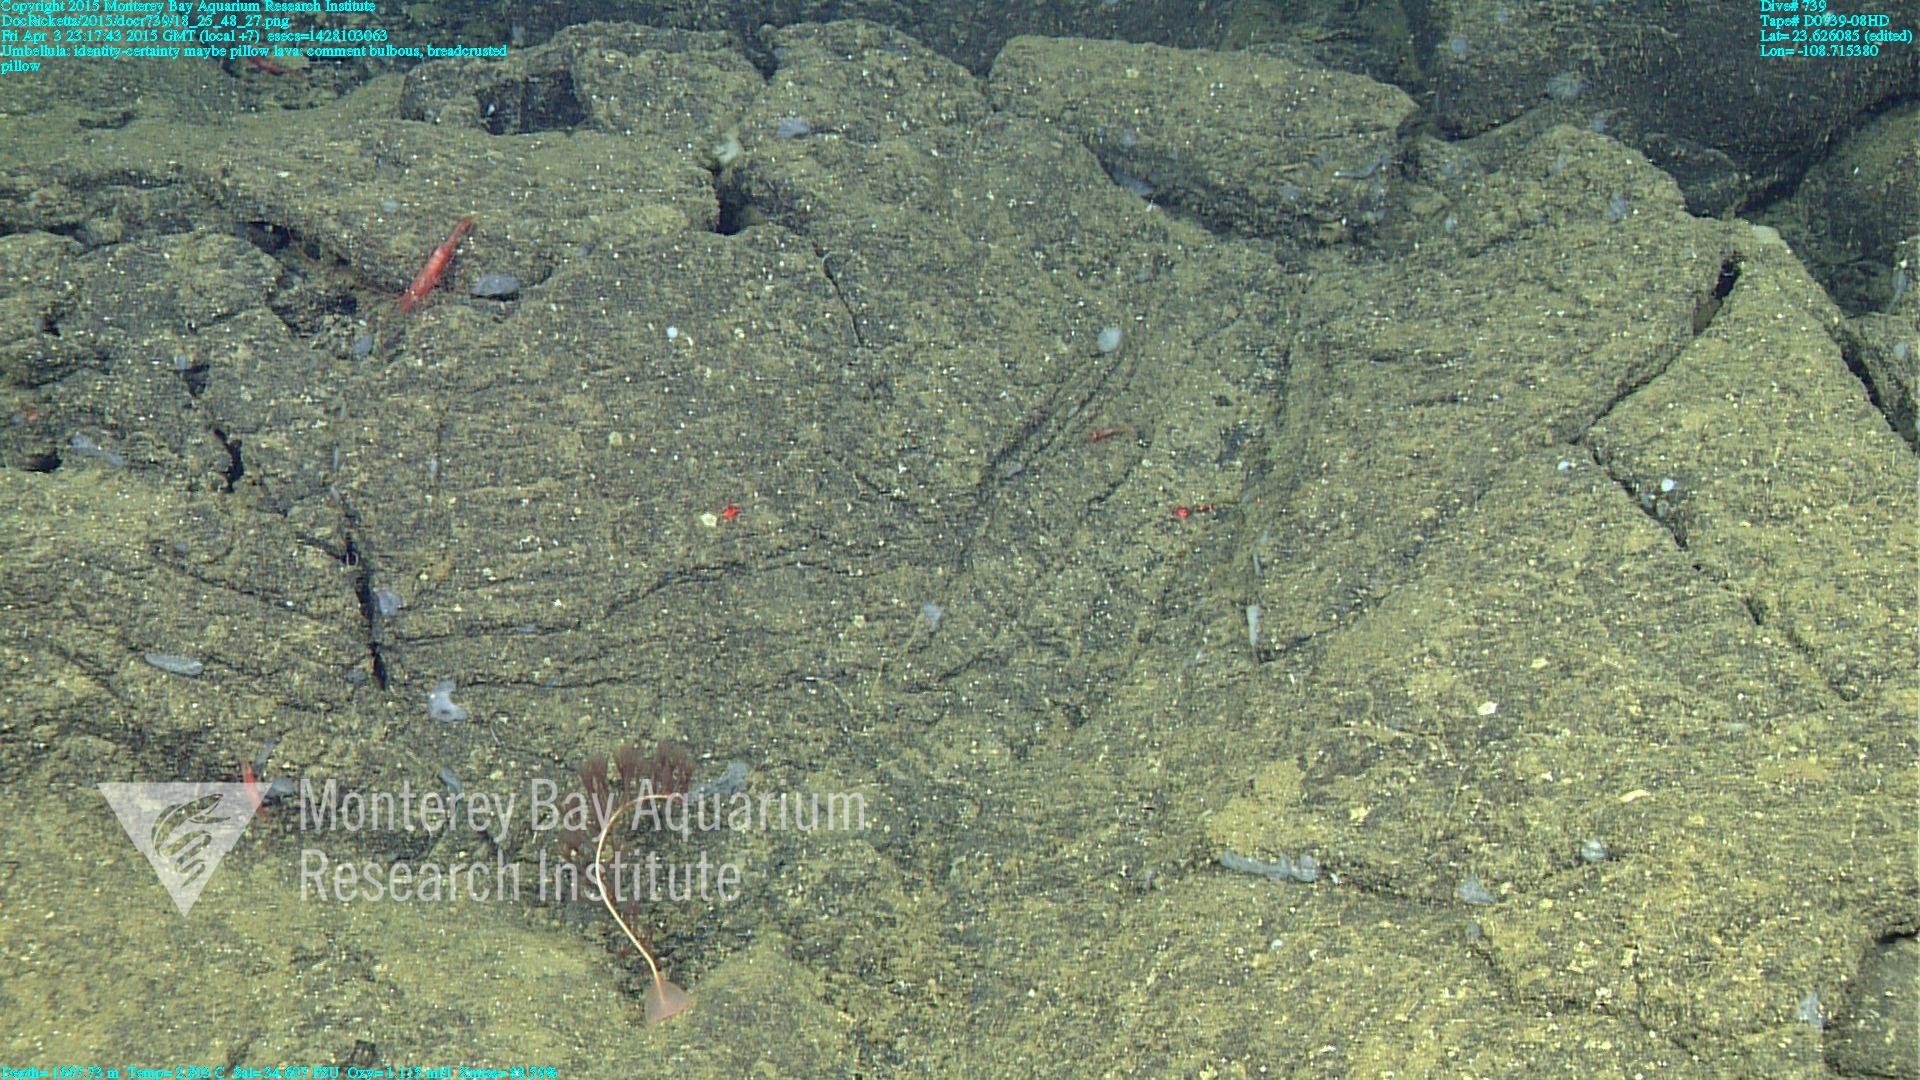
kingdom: Animalia
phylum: Cnidaria
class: Anthozoa
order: Scleralcyonacea
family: Umbellulidae
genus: Umbellula
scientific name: Umbellula
